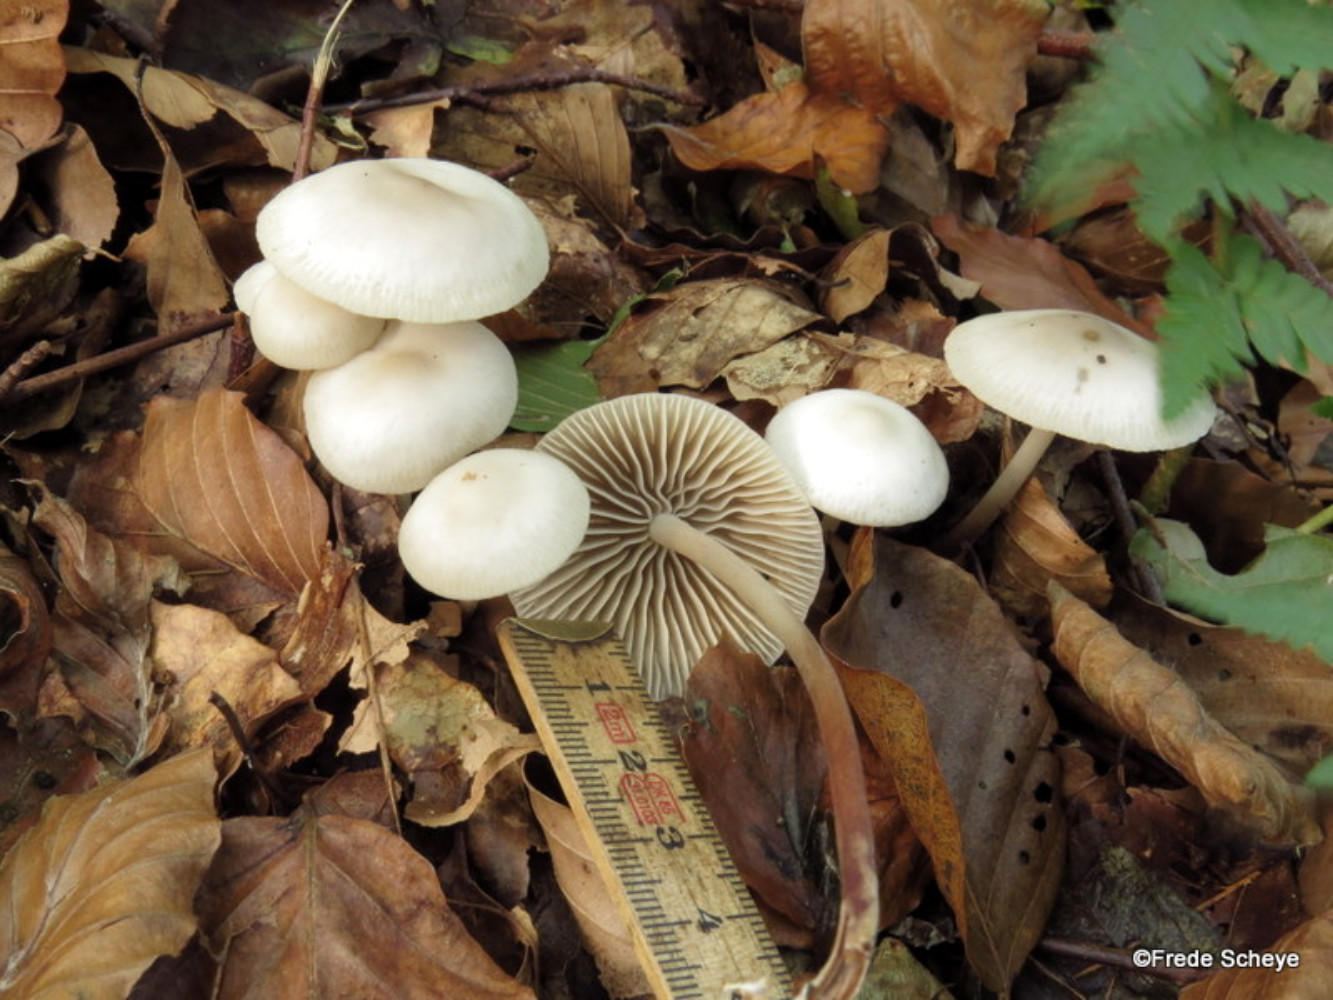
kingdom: Fungi
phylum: Basidiomycota
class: Agaricomycetes
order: Agaricales
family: Marasmiaceae
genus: Marasmius
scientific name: Marasmius wynneae
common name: hvælvet bruskhat
